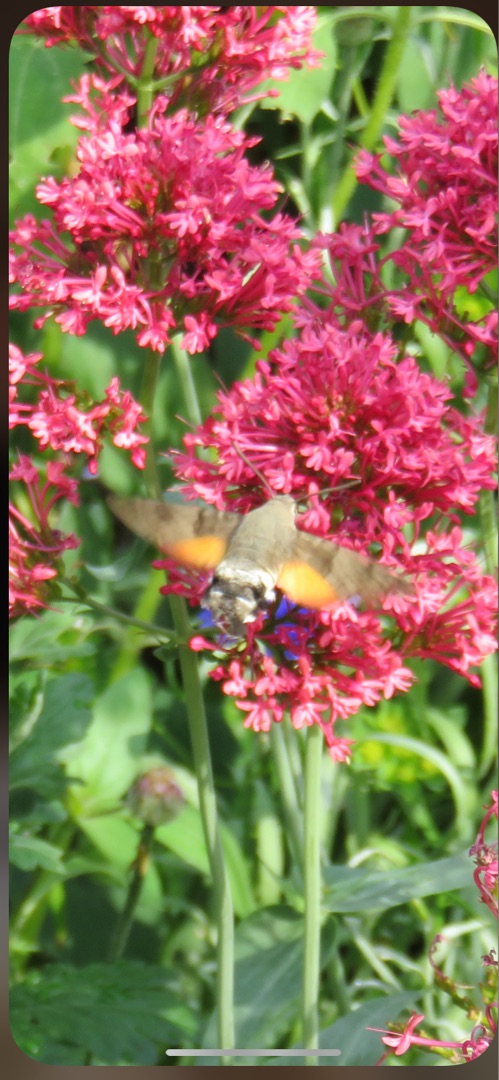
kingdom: Animalia
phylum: Arthropoda
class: Insecta
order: Lepidoptera
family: Sphingidae
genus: Macroglossum
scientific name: Macroglossum stellatarum
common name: Duehale
